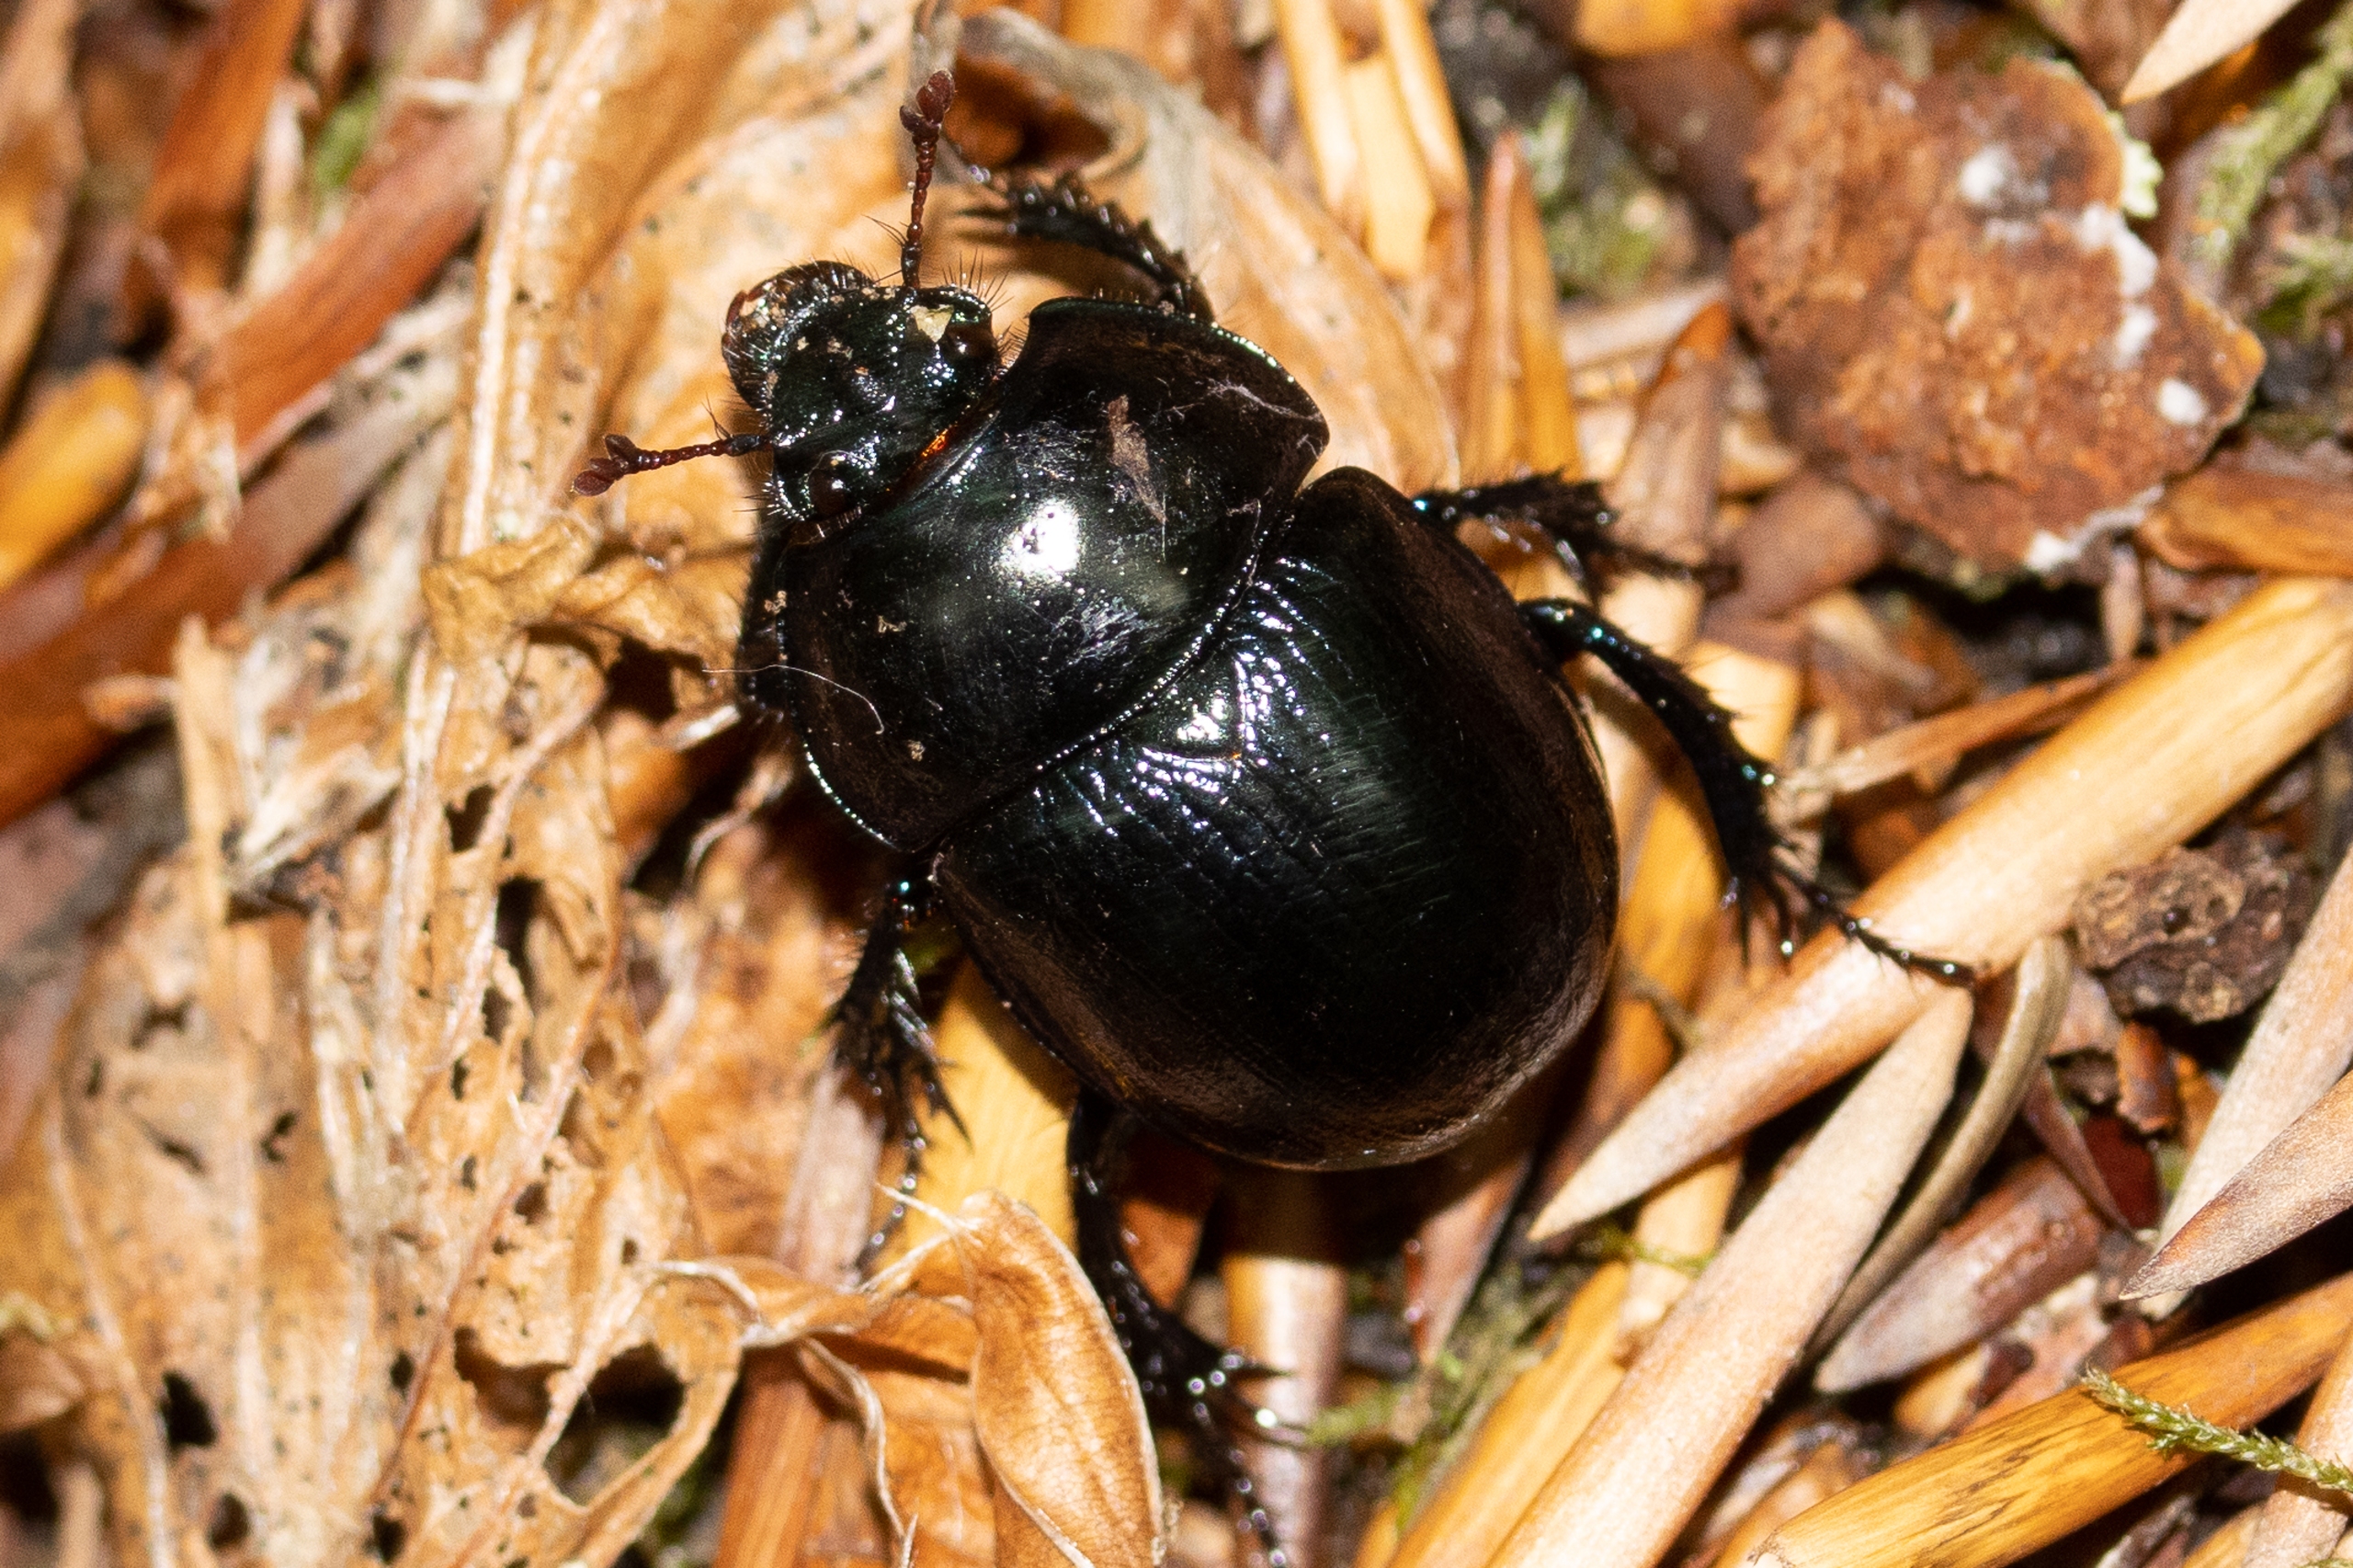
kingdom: Animalia
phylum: Arthropoda
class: Insecta
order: Coleoptera
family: Geotrupidae
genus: Anoplotrupes
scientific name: Anoplotrupes stercorosus
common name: Skovskarnbasse
